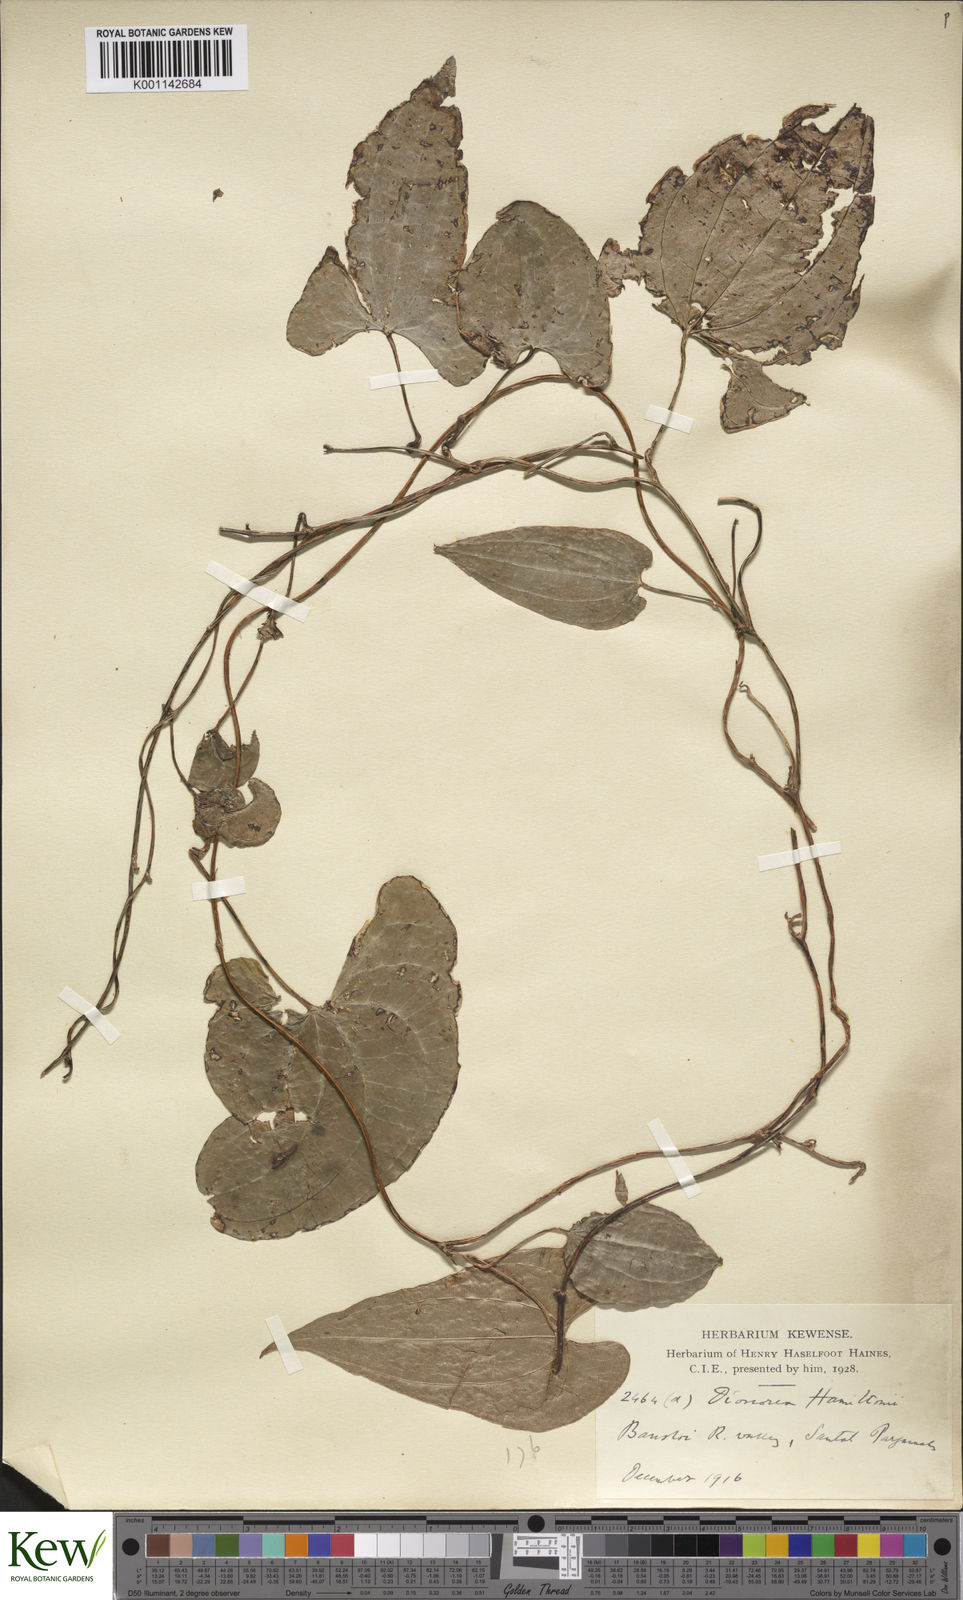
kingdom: Plantae
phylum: Tracheophyta
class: Liliopsida
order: Dioscoreales
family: Dioscoreaceae
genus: Dioscorea
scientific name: Dioscorea hamiltonii
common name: Mountain yam
